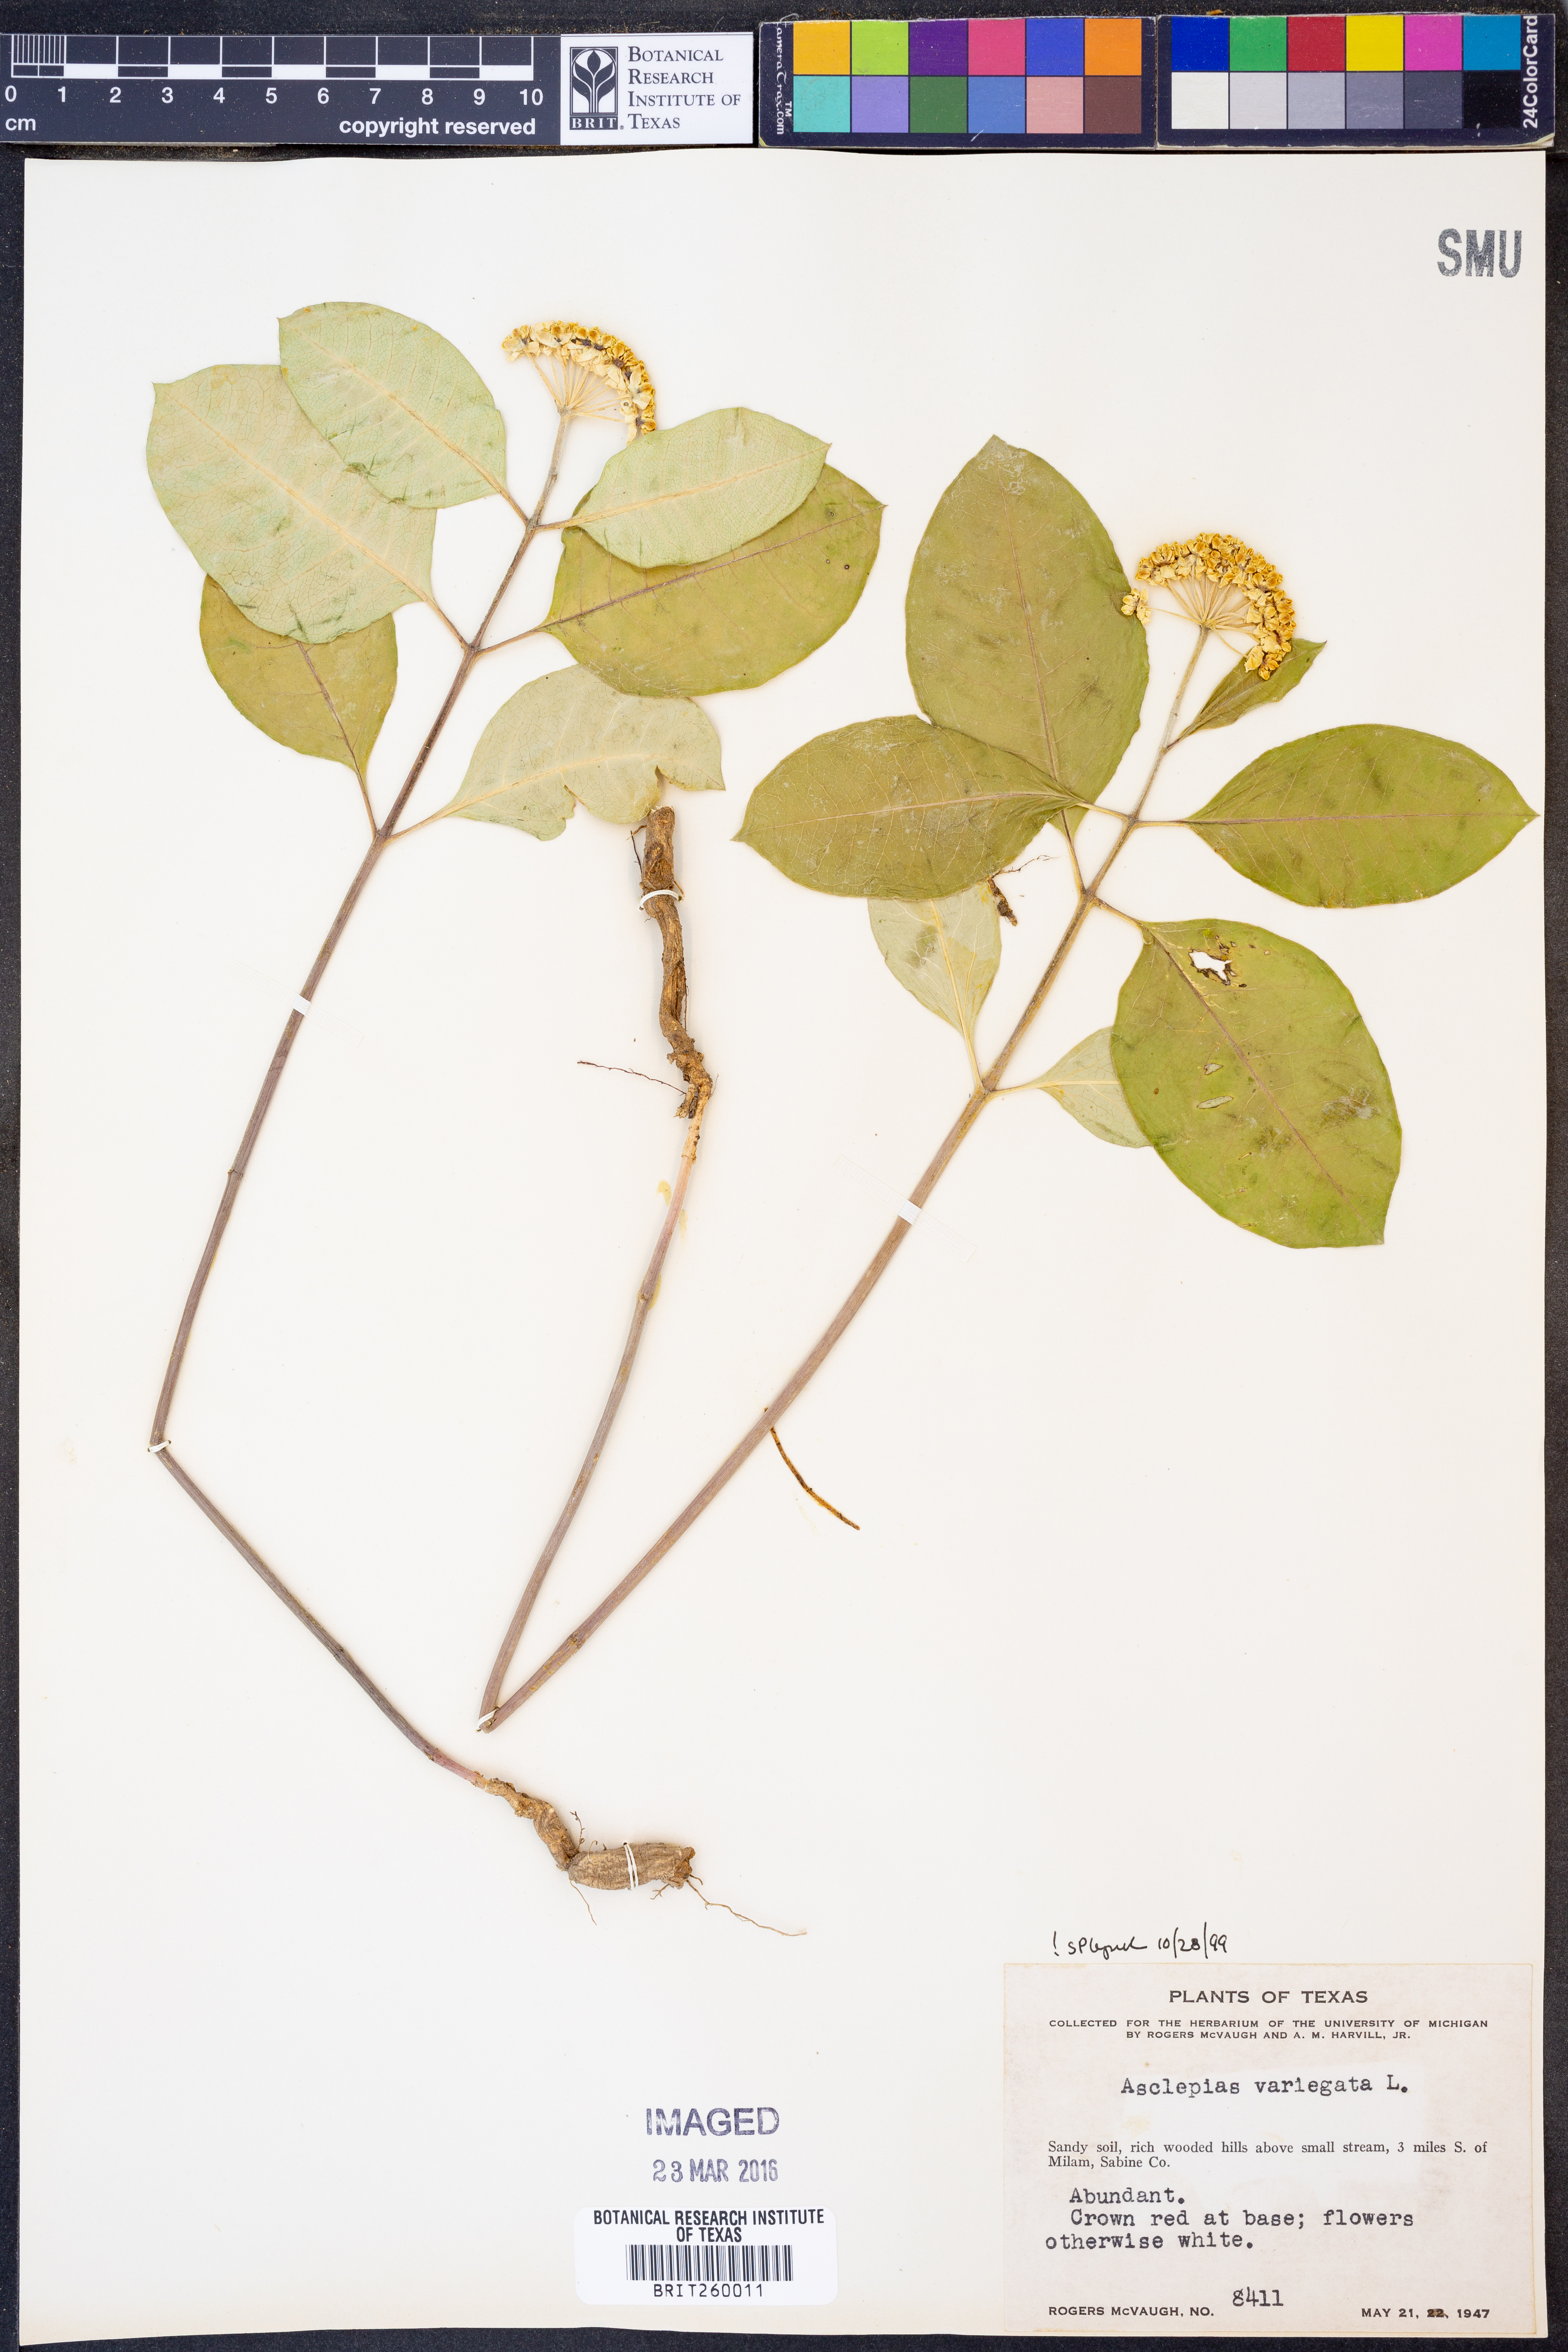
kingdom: Plantae
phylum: Tracheophyta
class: Magnoliopsida
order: Gentianales
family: Apocynaceae
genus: Asclepias
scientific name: Asclepias variegata
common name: Variegated milkweed
